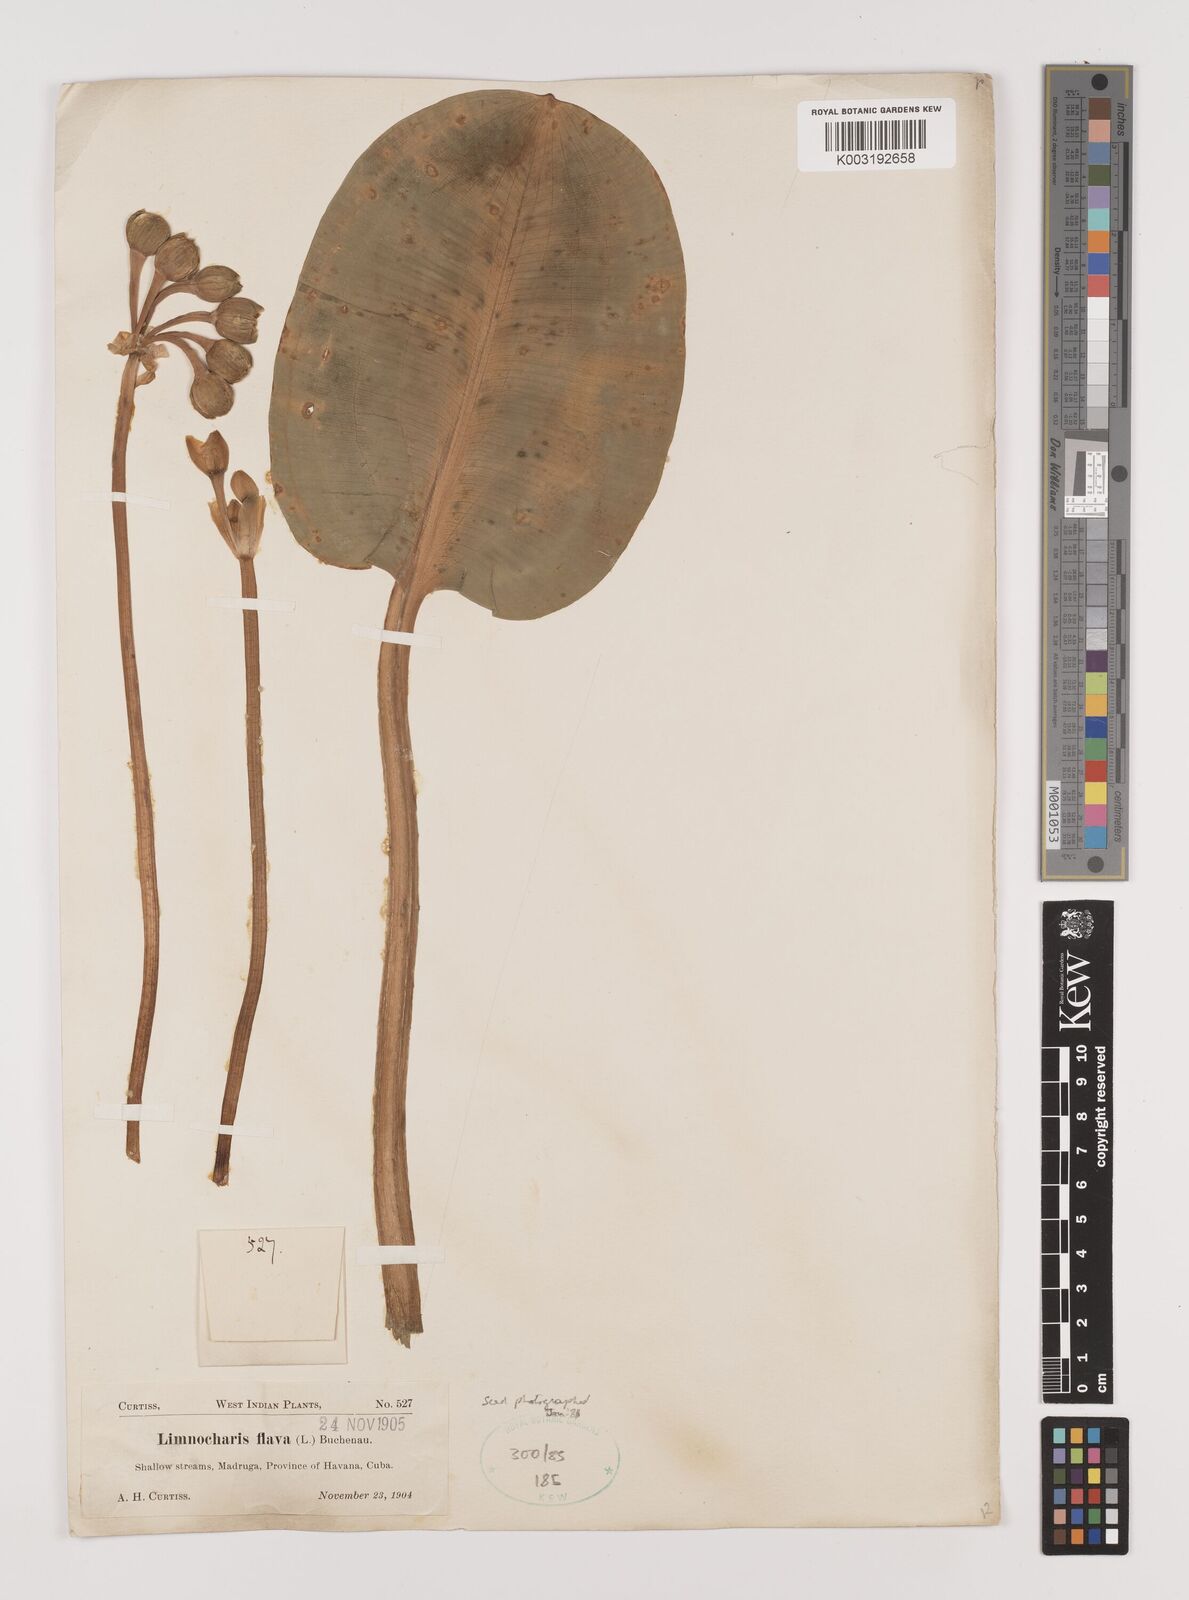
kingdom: Plantae
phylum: Tracheophyta
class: Liliopsida
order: Alismatales
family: Alismataceae
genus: Limnocharis
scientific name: Limnocharis flava
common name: Sawah-flower-rush
